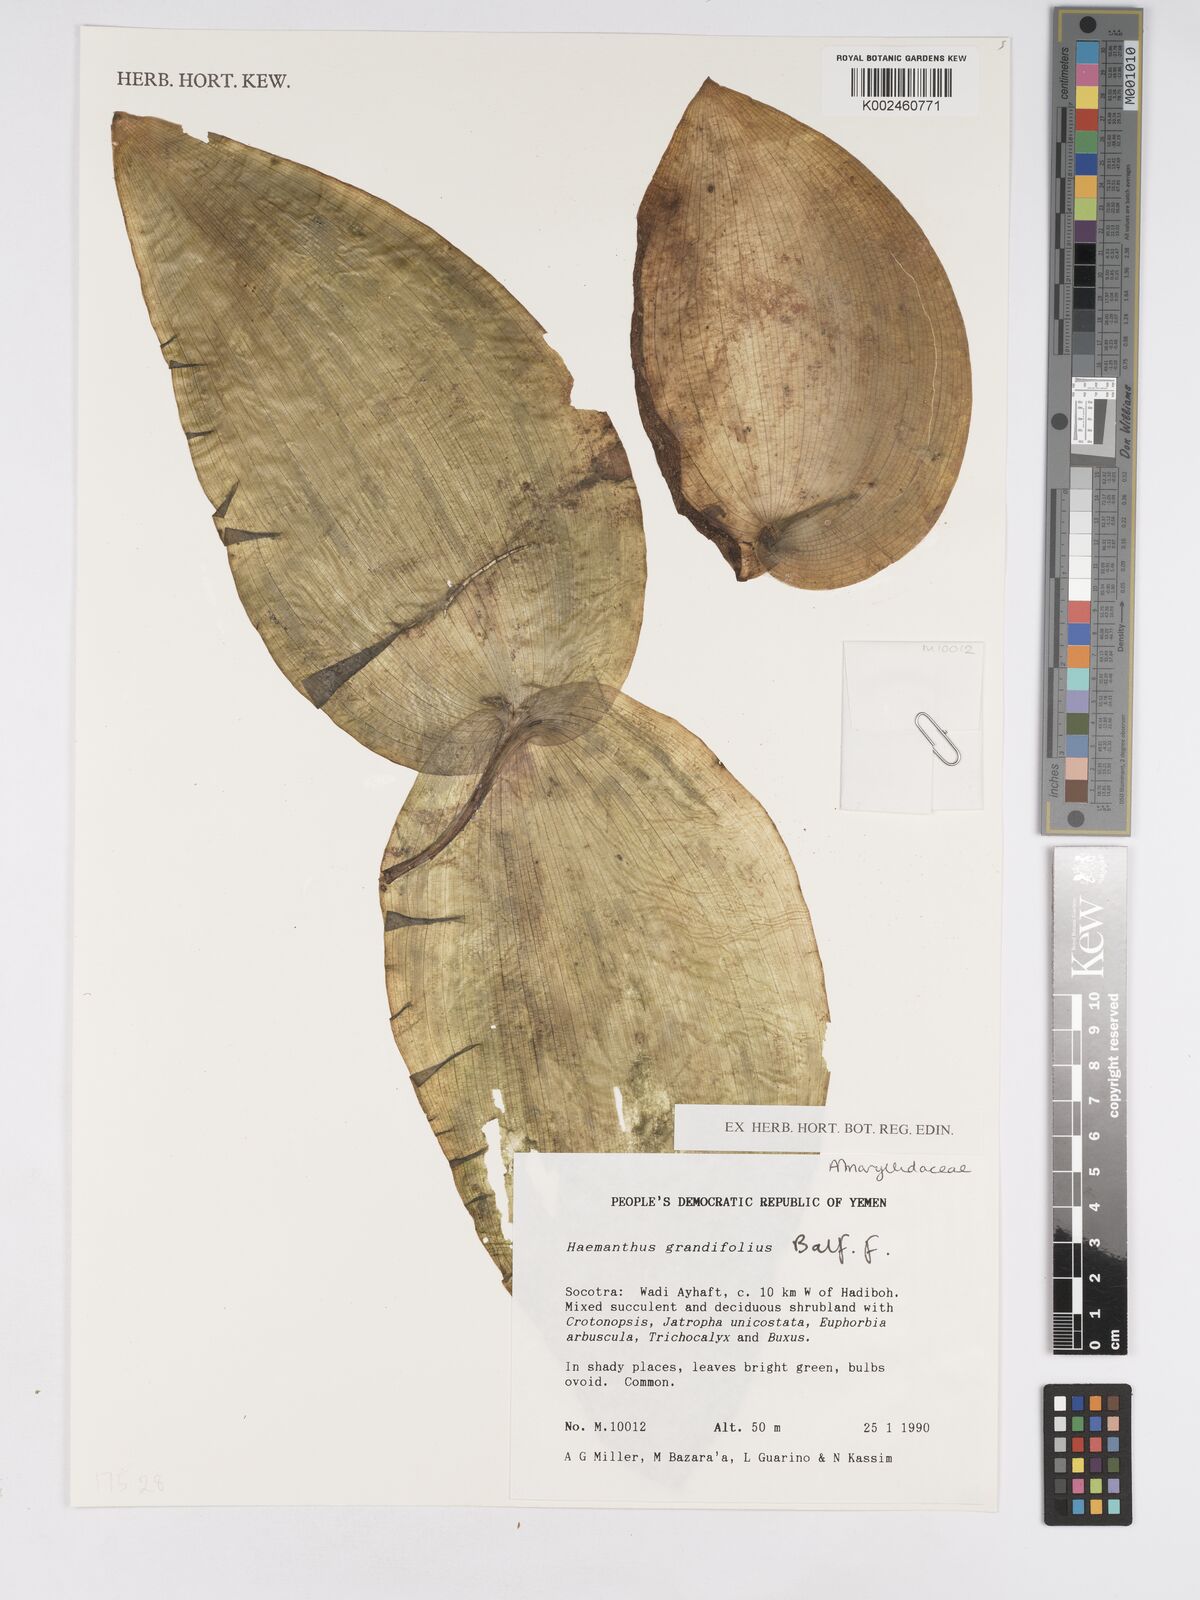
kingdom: Plantae
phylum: Tracheophyta
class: Liliopsida
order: Asparagales
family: Asparagaceae
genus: Ledebouria
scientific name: Ledebouria grandifolia
